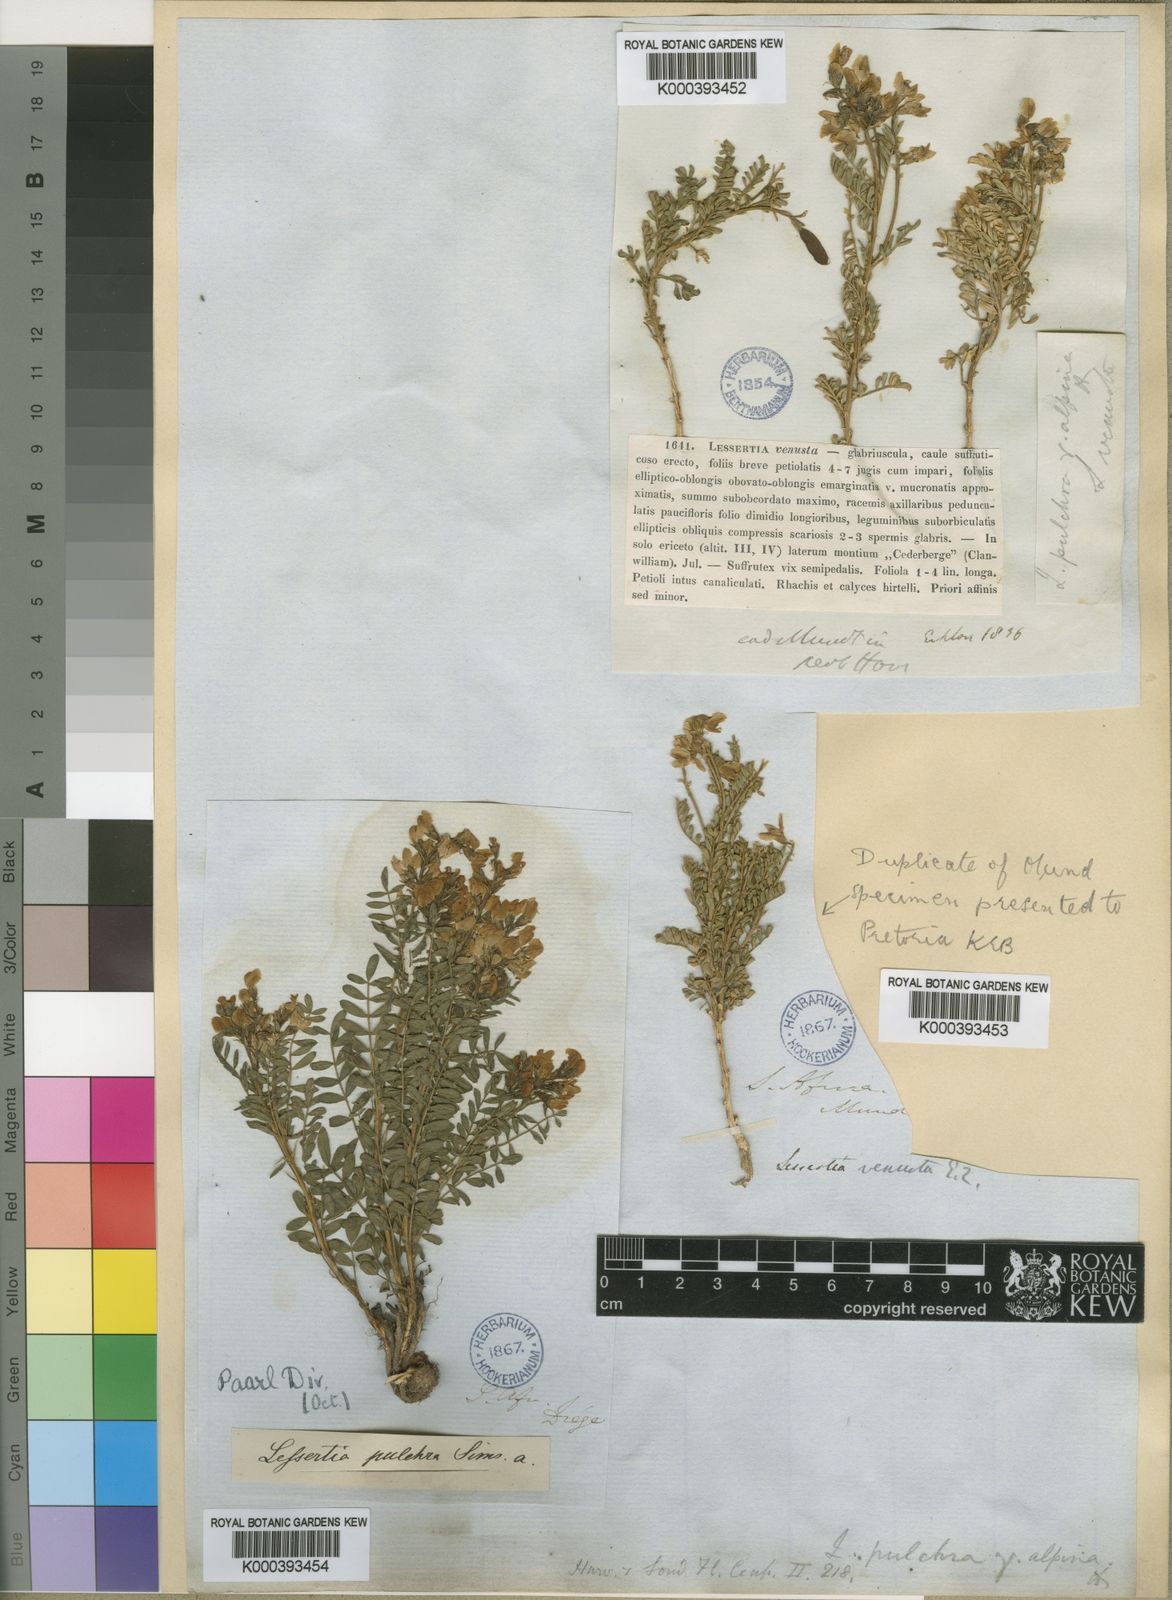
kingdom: Plantae
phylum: Tracheophyta
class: Magnoliopsida
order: Fabales
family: Fabaceae
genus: Lessertia
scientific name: Lessertia capensis
